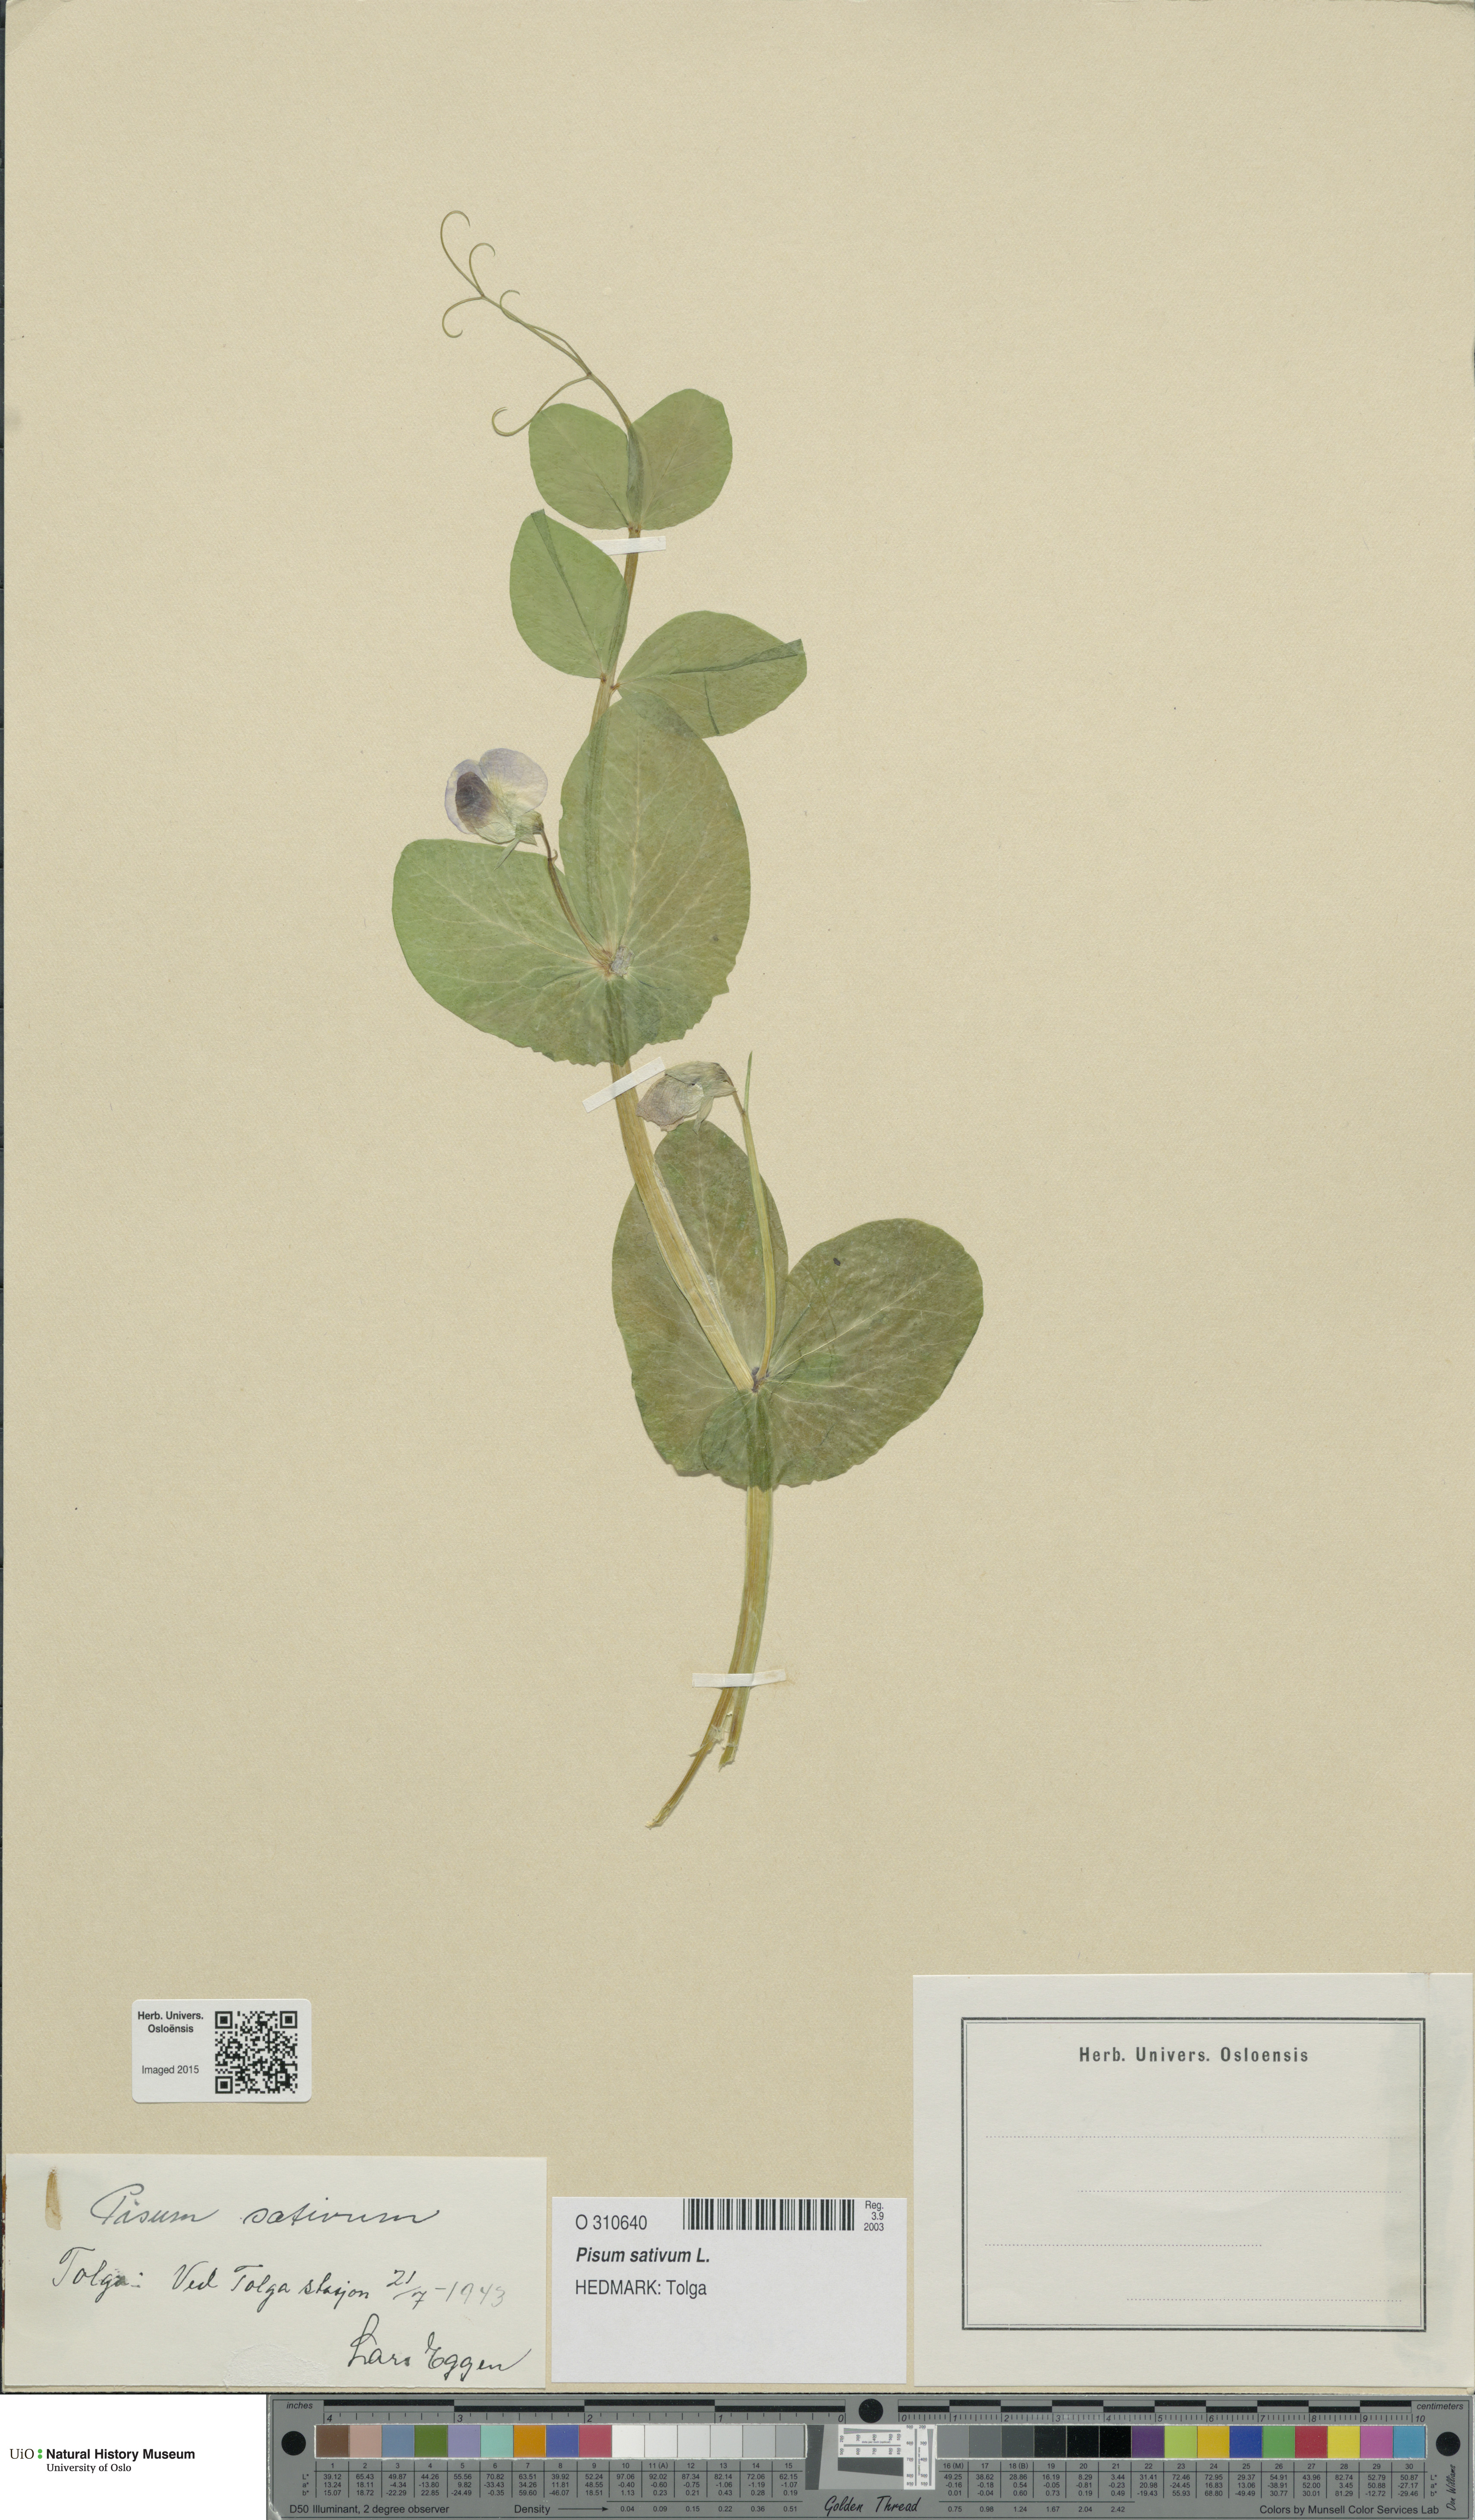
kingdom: Plantae
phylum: Tracheophyta
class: Magnoliopsida
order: Fabales
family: Fabaceae
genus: Lathyrus
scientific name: Lathyrus oleraceus
